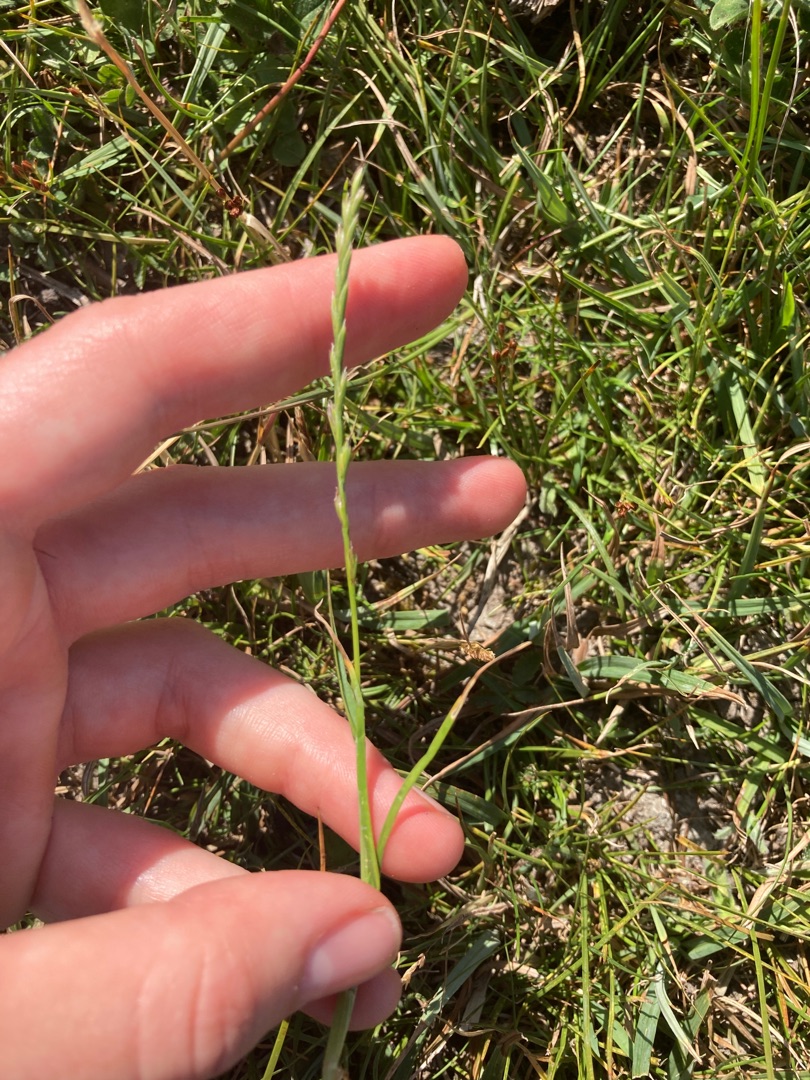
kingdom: Plantae
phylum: Tracheophyta
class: Liliopsida
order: Poales
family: Poaceae
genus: Lolium
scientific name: Lolium perenne
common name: Almindelig rajgræs
